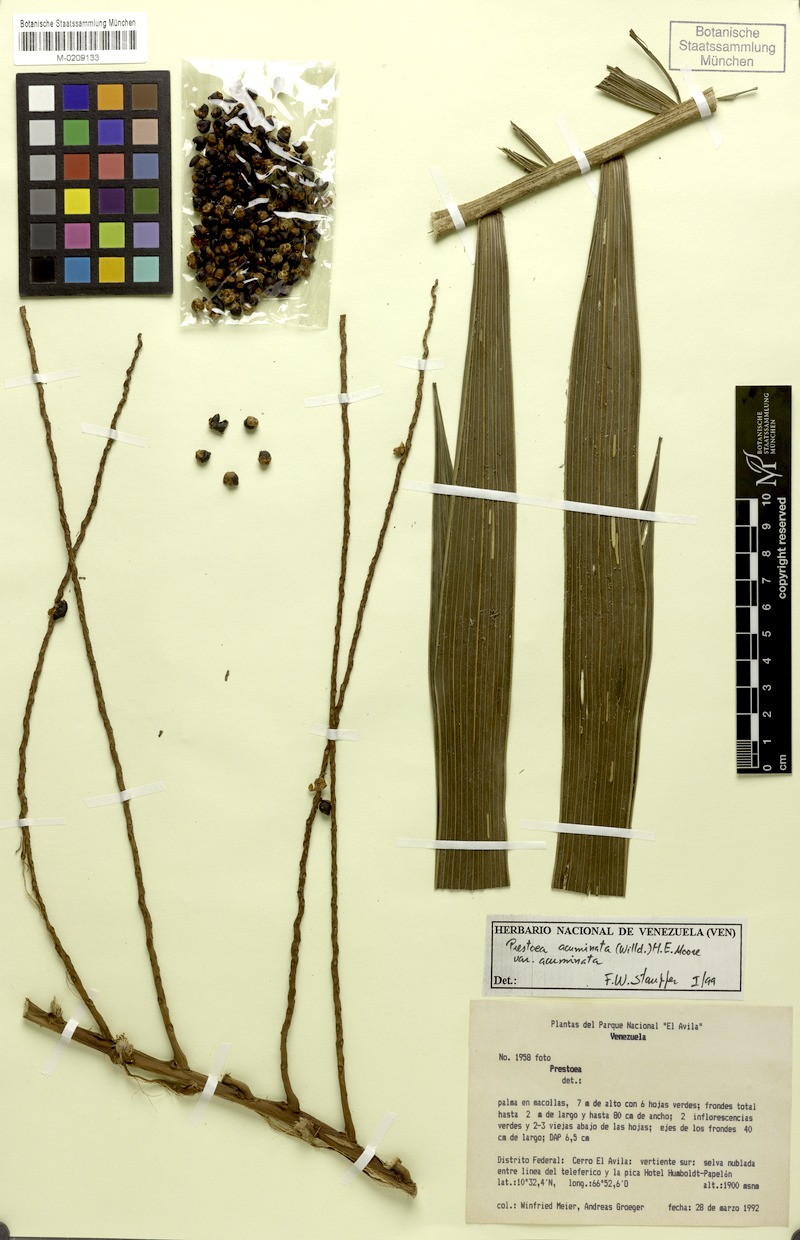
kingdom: Plantae
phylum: Tracheophyta
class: Liliopsida
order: Arecales
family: Arecaceae
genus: Prestoea
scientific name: Prestoea acuminata
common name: Sierran palm
